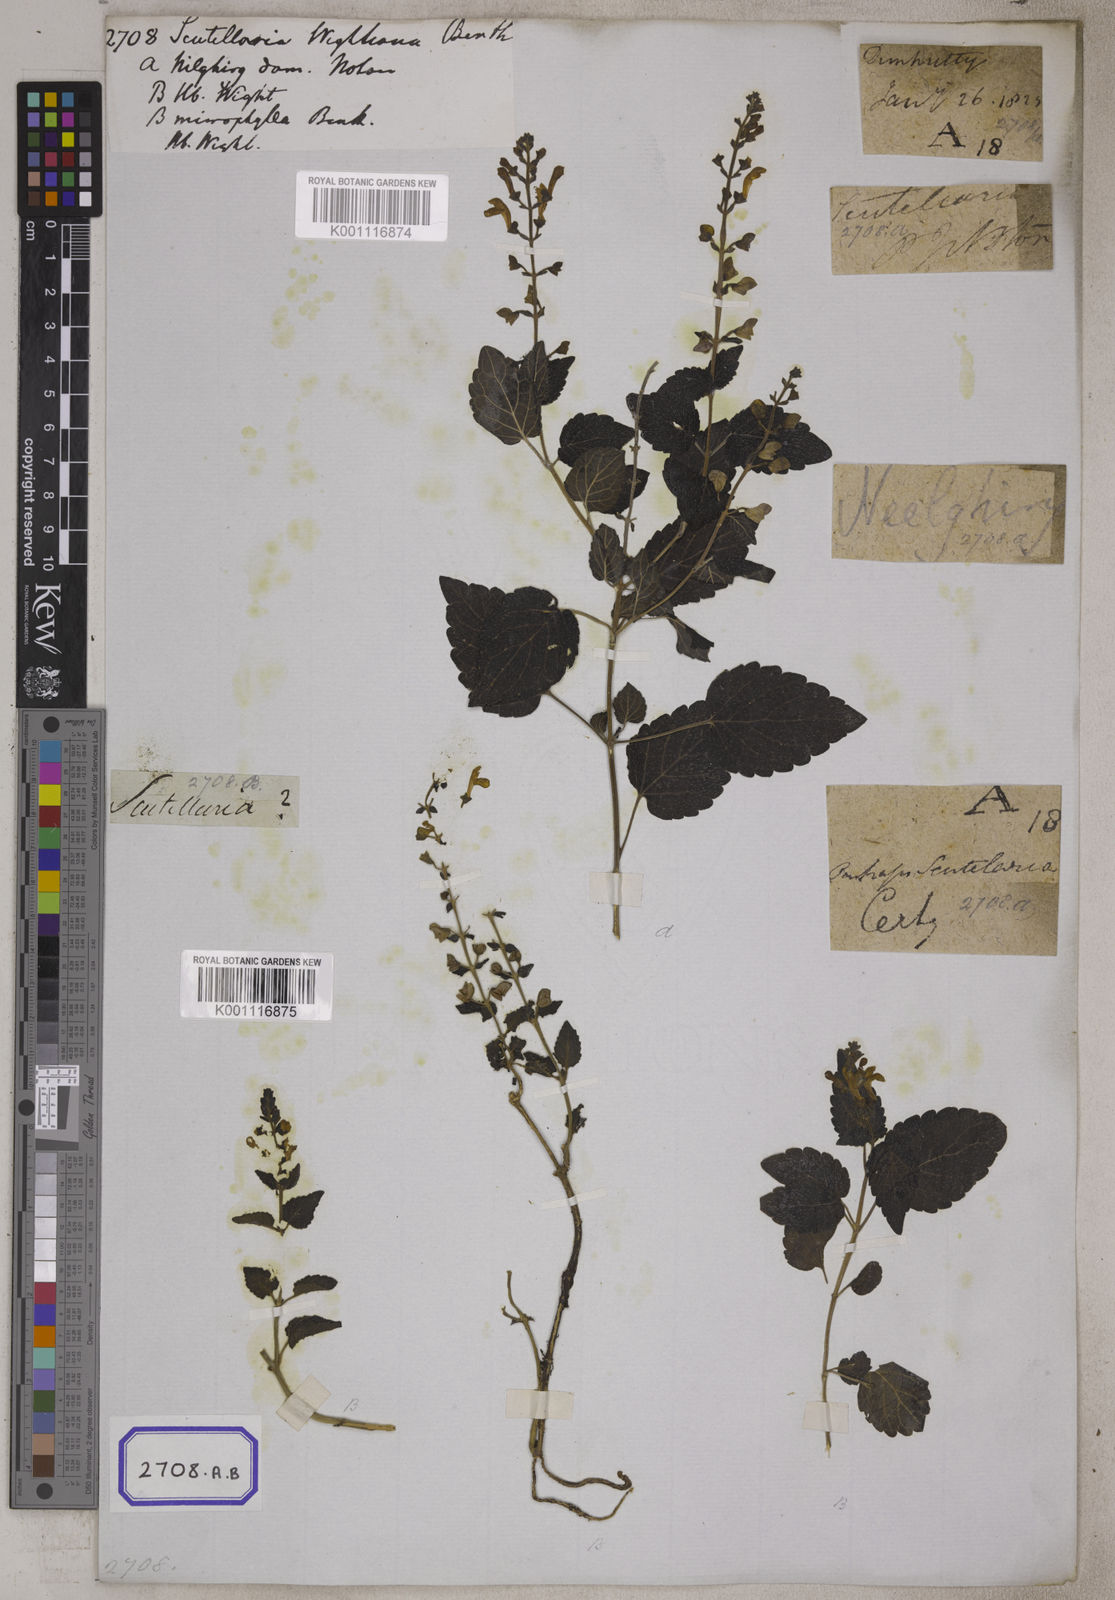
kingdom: Plantae
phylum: Tracheophyta
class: Magnoliopsida
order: Lamiales
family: Lamiaceae
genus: Scutellaria
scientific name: Scutellaria wightiana
